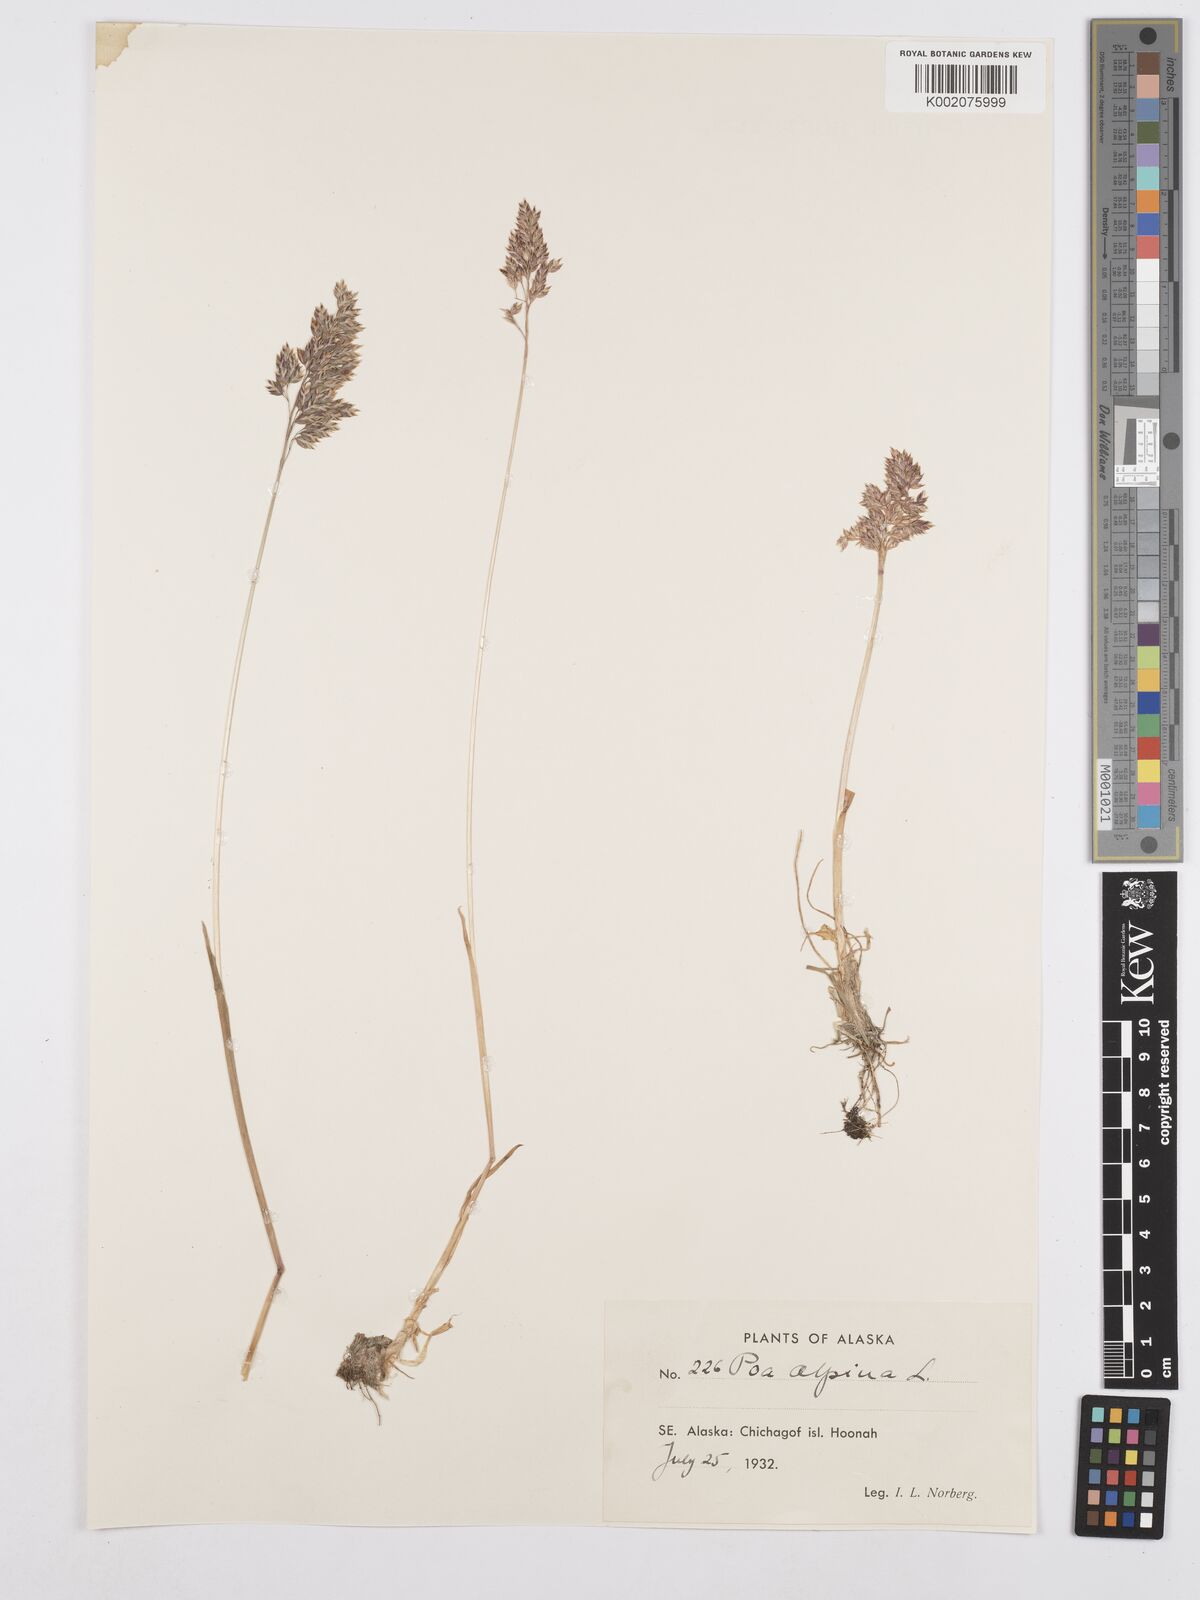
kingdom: Plantae
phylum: Tracheophyta
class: Liliopsida
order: Poales
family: Poaceae
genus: Poa
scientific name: Poa alpina
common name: Alpine bluegrass
